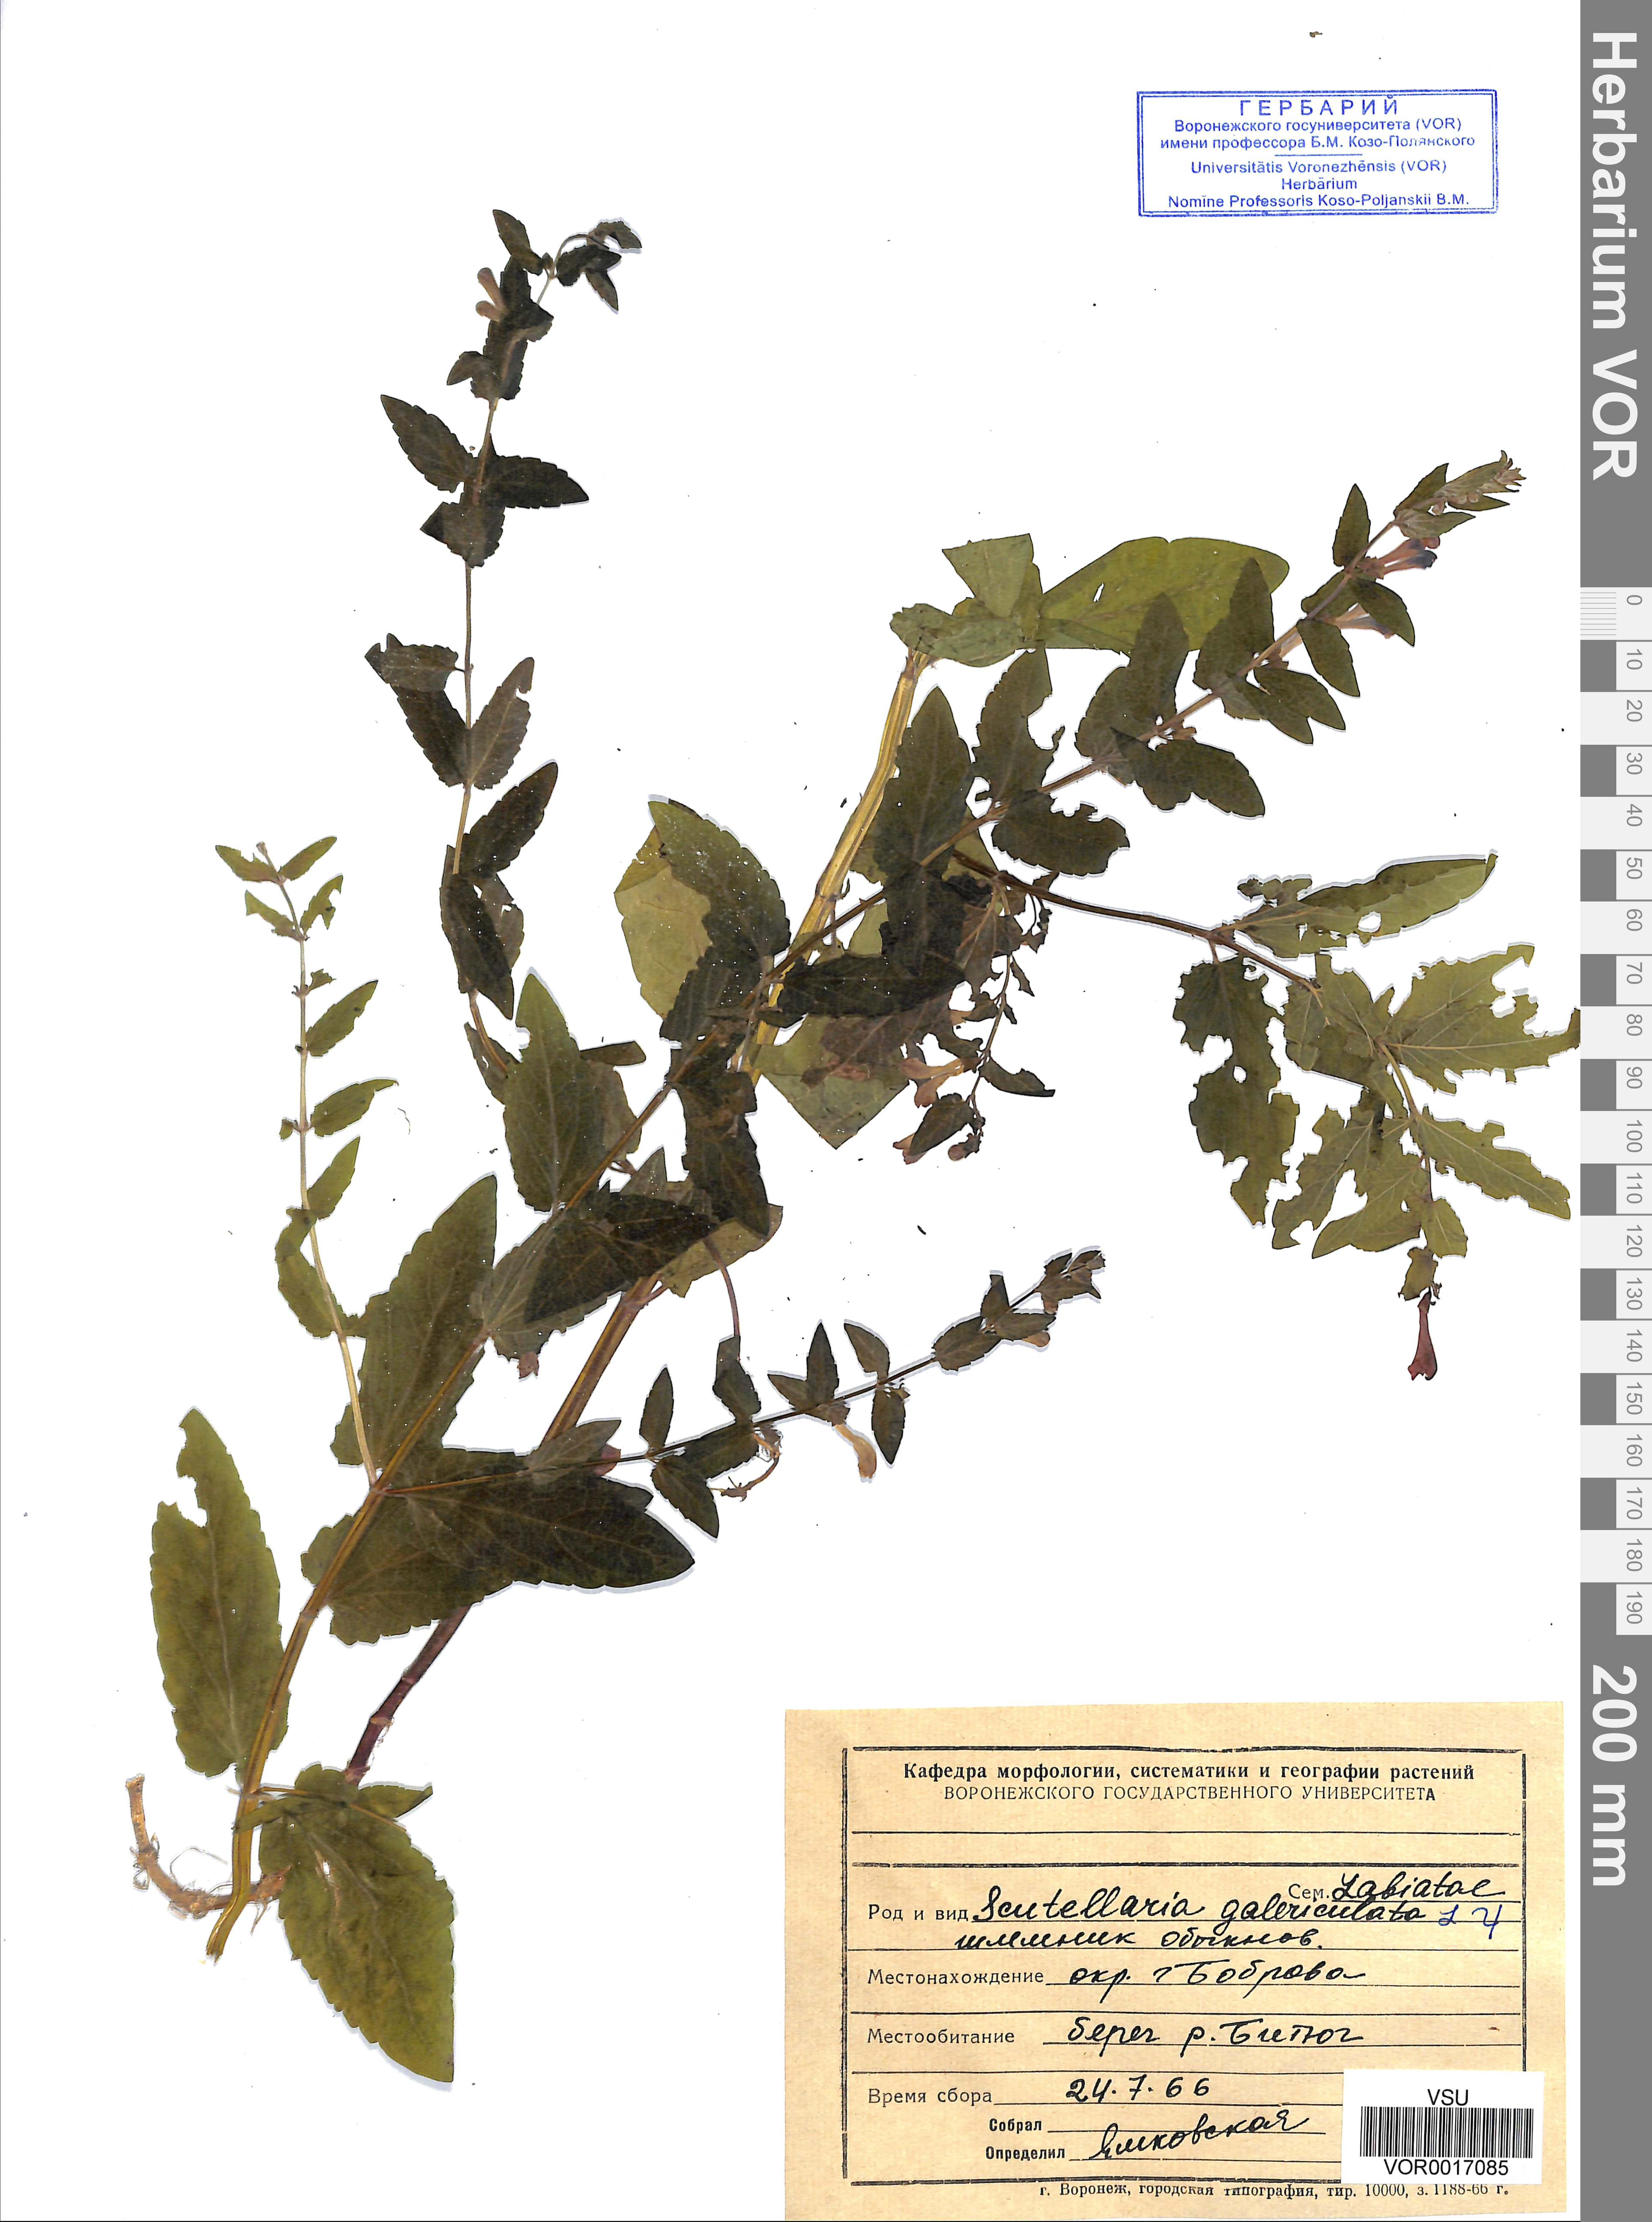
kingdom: Plantae
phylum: Tracheophyta
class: Magnoliopsida
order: Lamiales
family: Lamiaceae
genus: Scutellaria
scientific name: Scutellaria galericulata
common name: Skullcap
